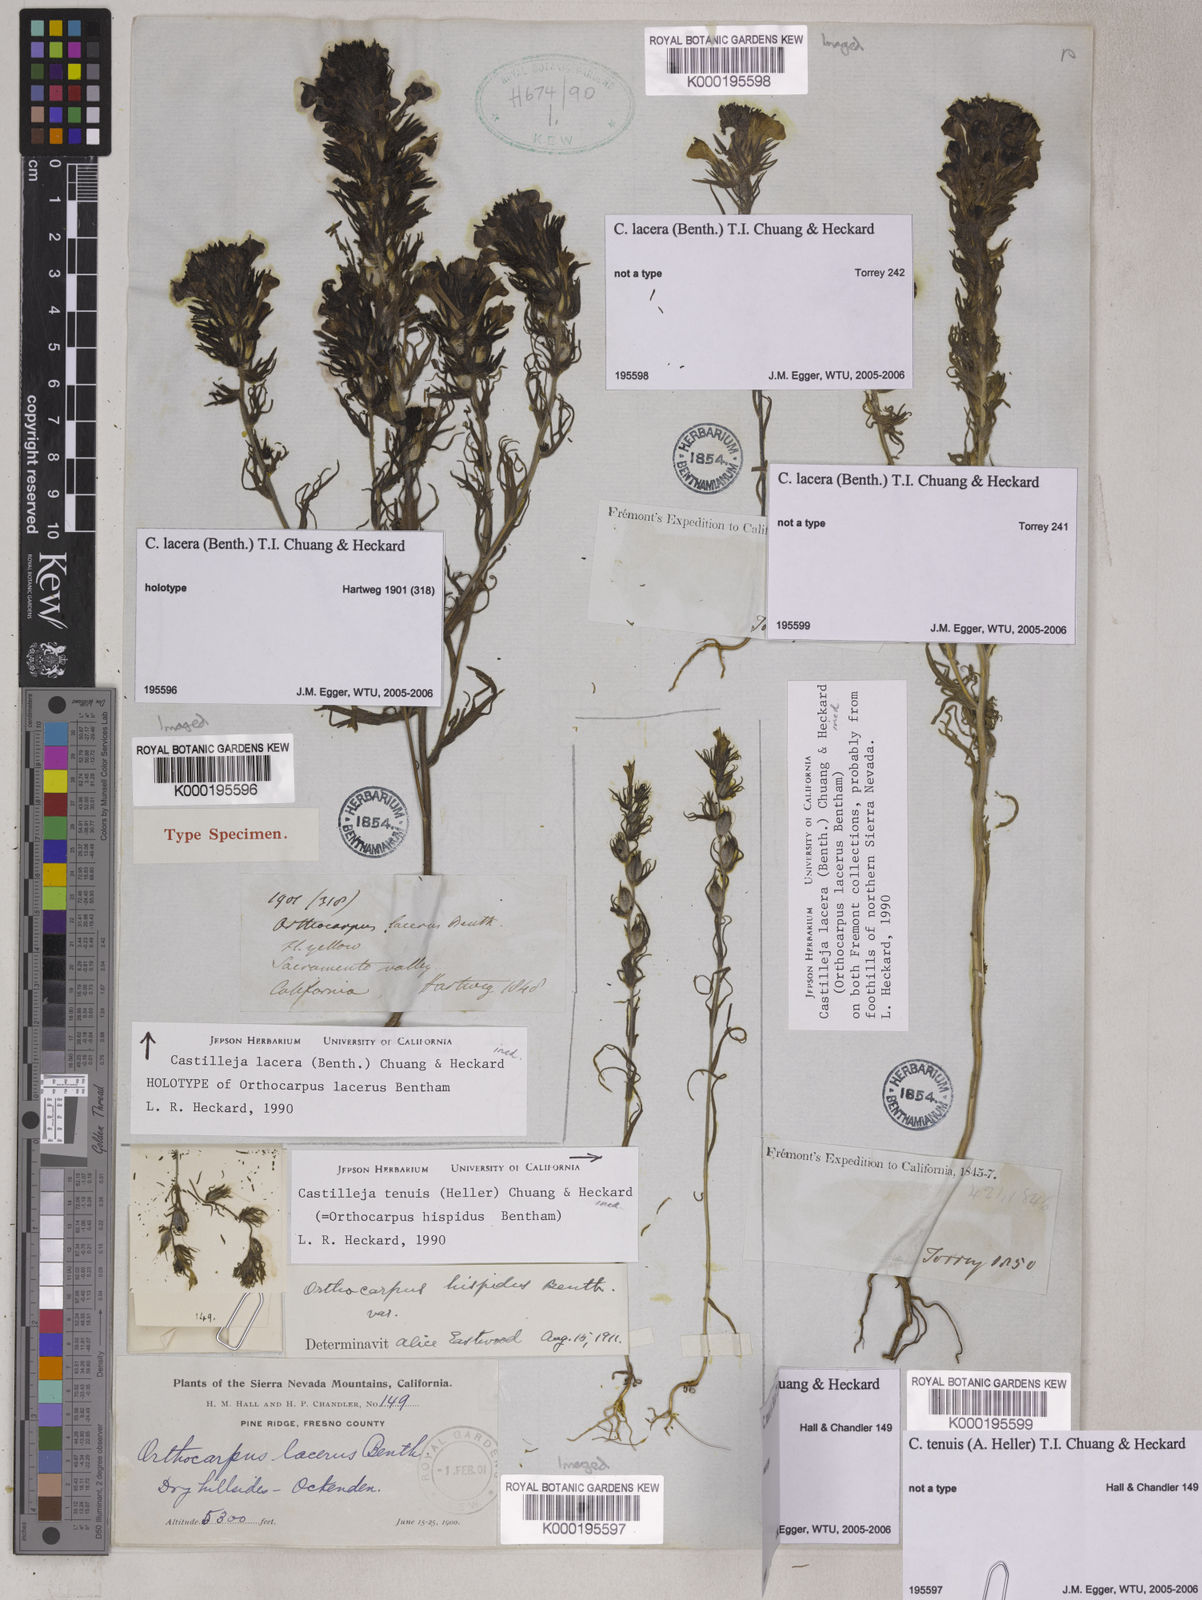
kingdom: Plantae
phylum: Tracheophyta
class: Magnoliopsida
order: Lamiales
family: Orobanchaceae
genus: Castilleja
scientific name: Castilleja lacera
